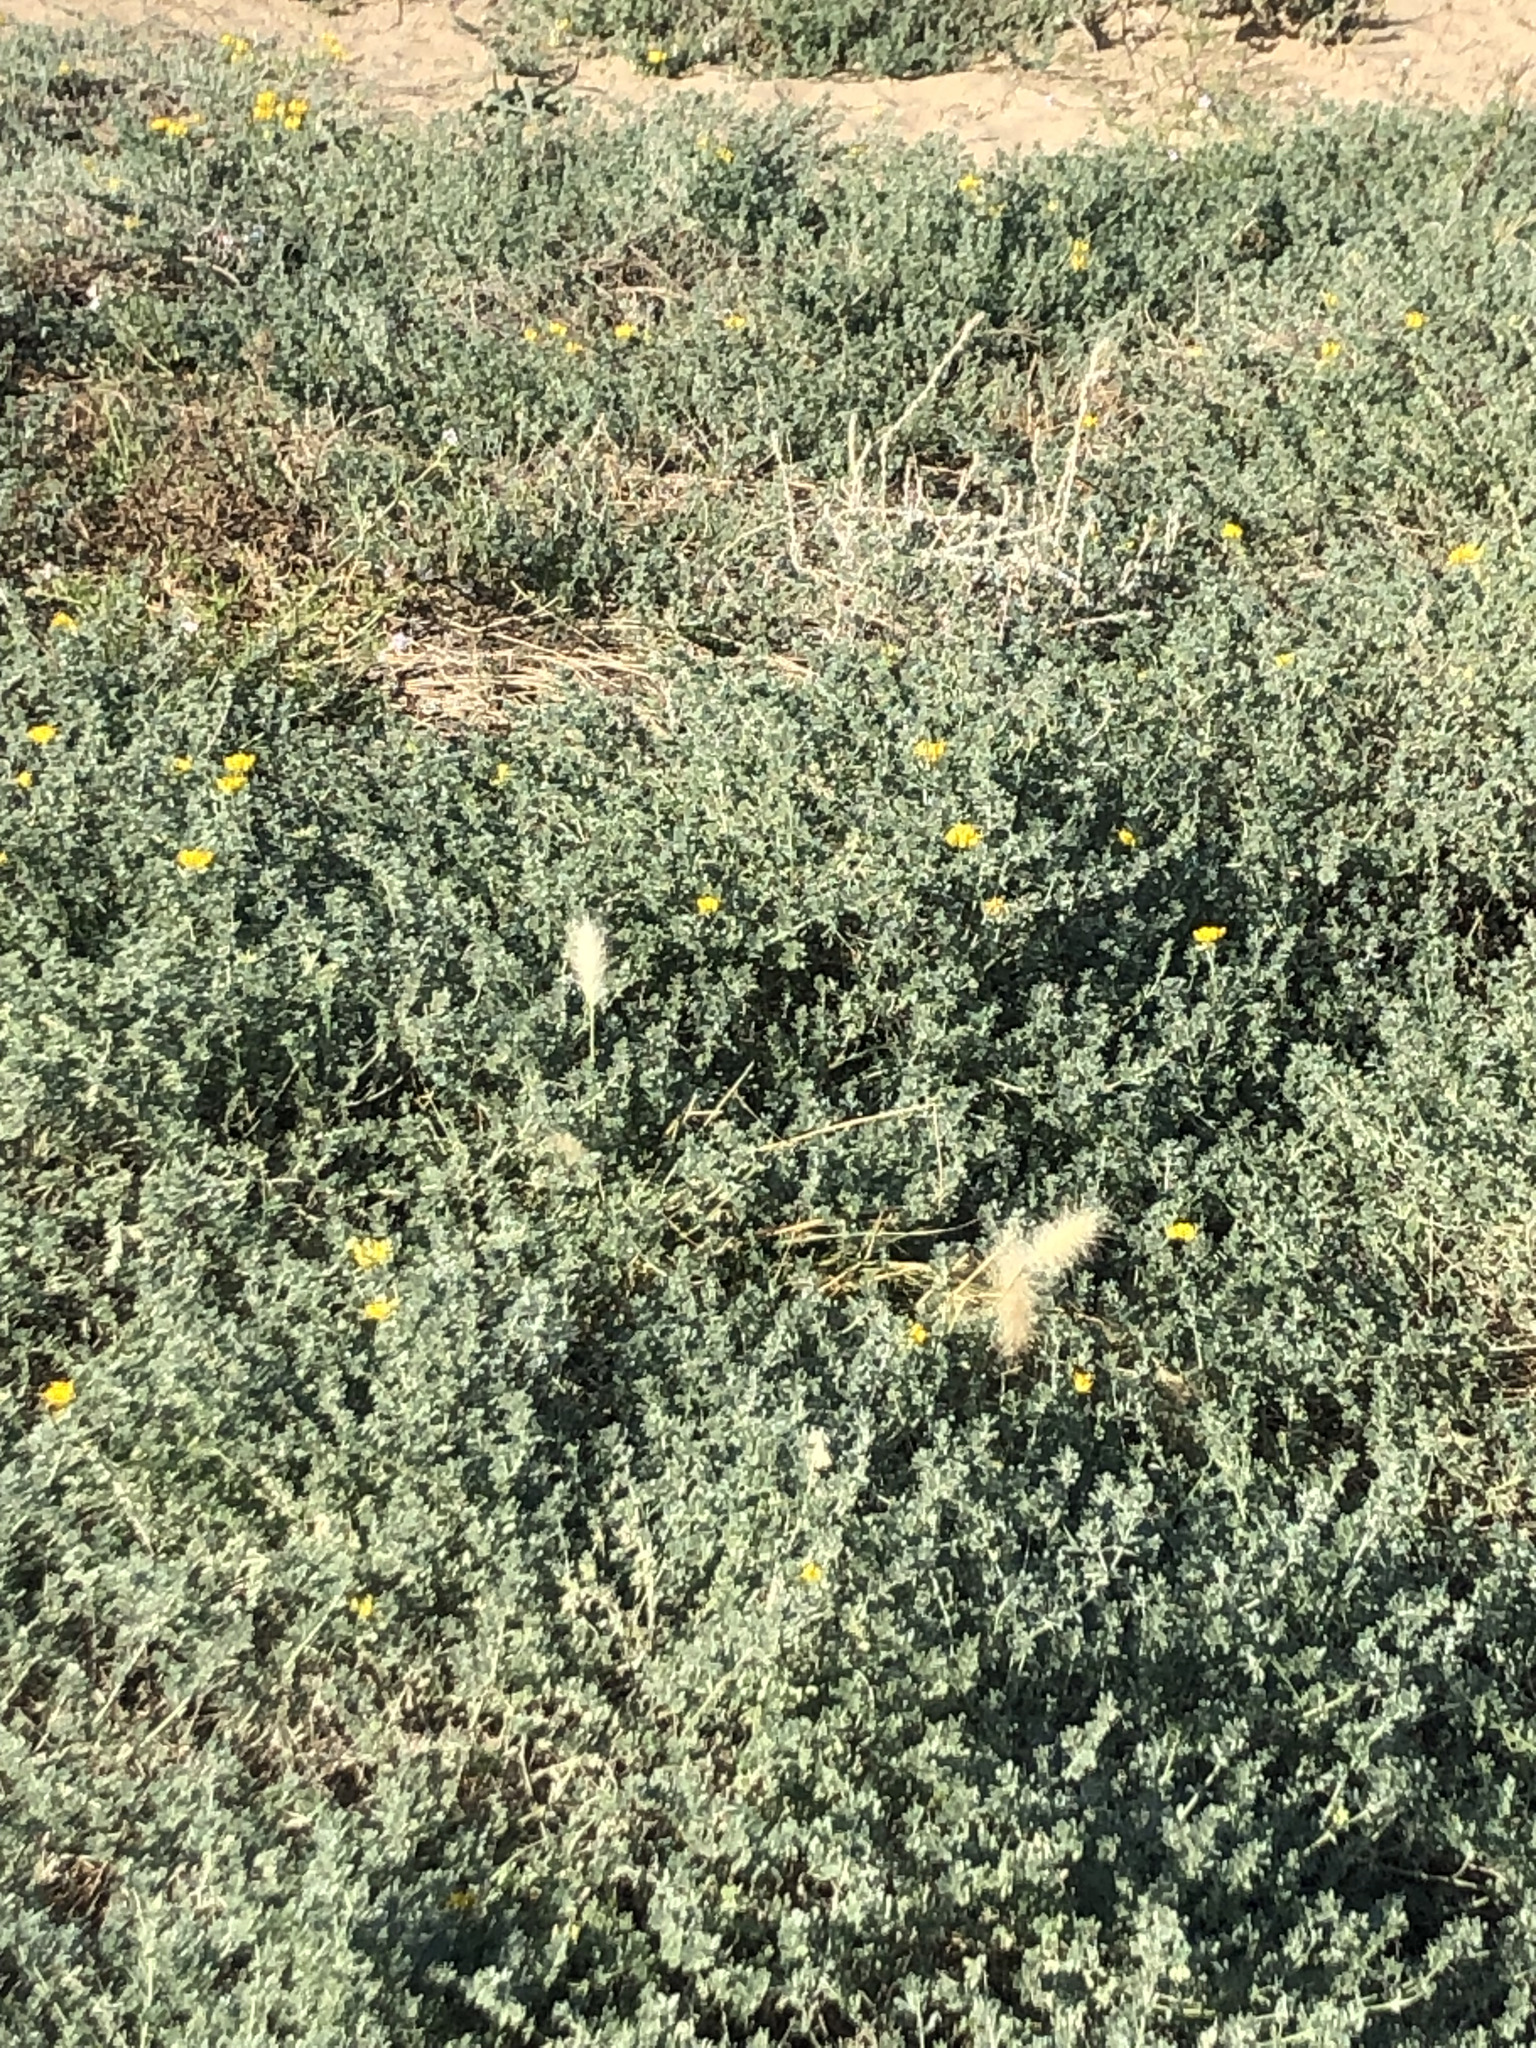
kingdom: Plantae
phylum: Tracheophyta
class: Liliopsida
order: Poales
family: Poaceae
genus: Cenchrus
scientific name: Cenchrus longisetus
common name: Feathertop
